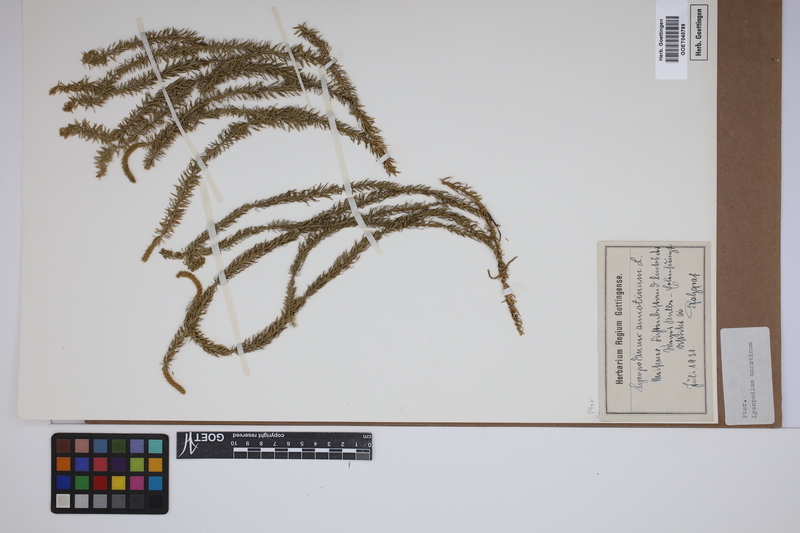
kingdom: Plantae
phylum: Tracheophyta
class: Lycopodiopsida
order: Lycopodiales
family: Lycopodiaceae
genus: Spinulum
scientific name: Spinulum annotinum
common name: Interrupted club-moss
